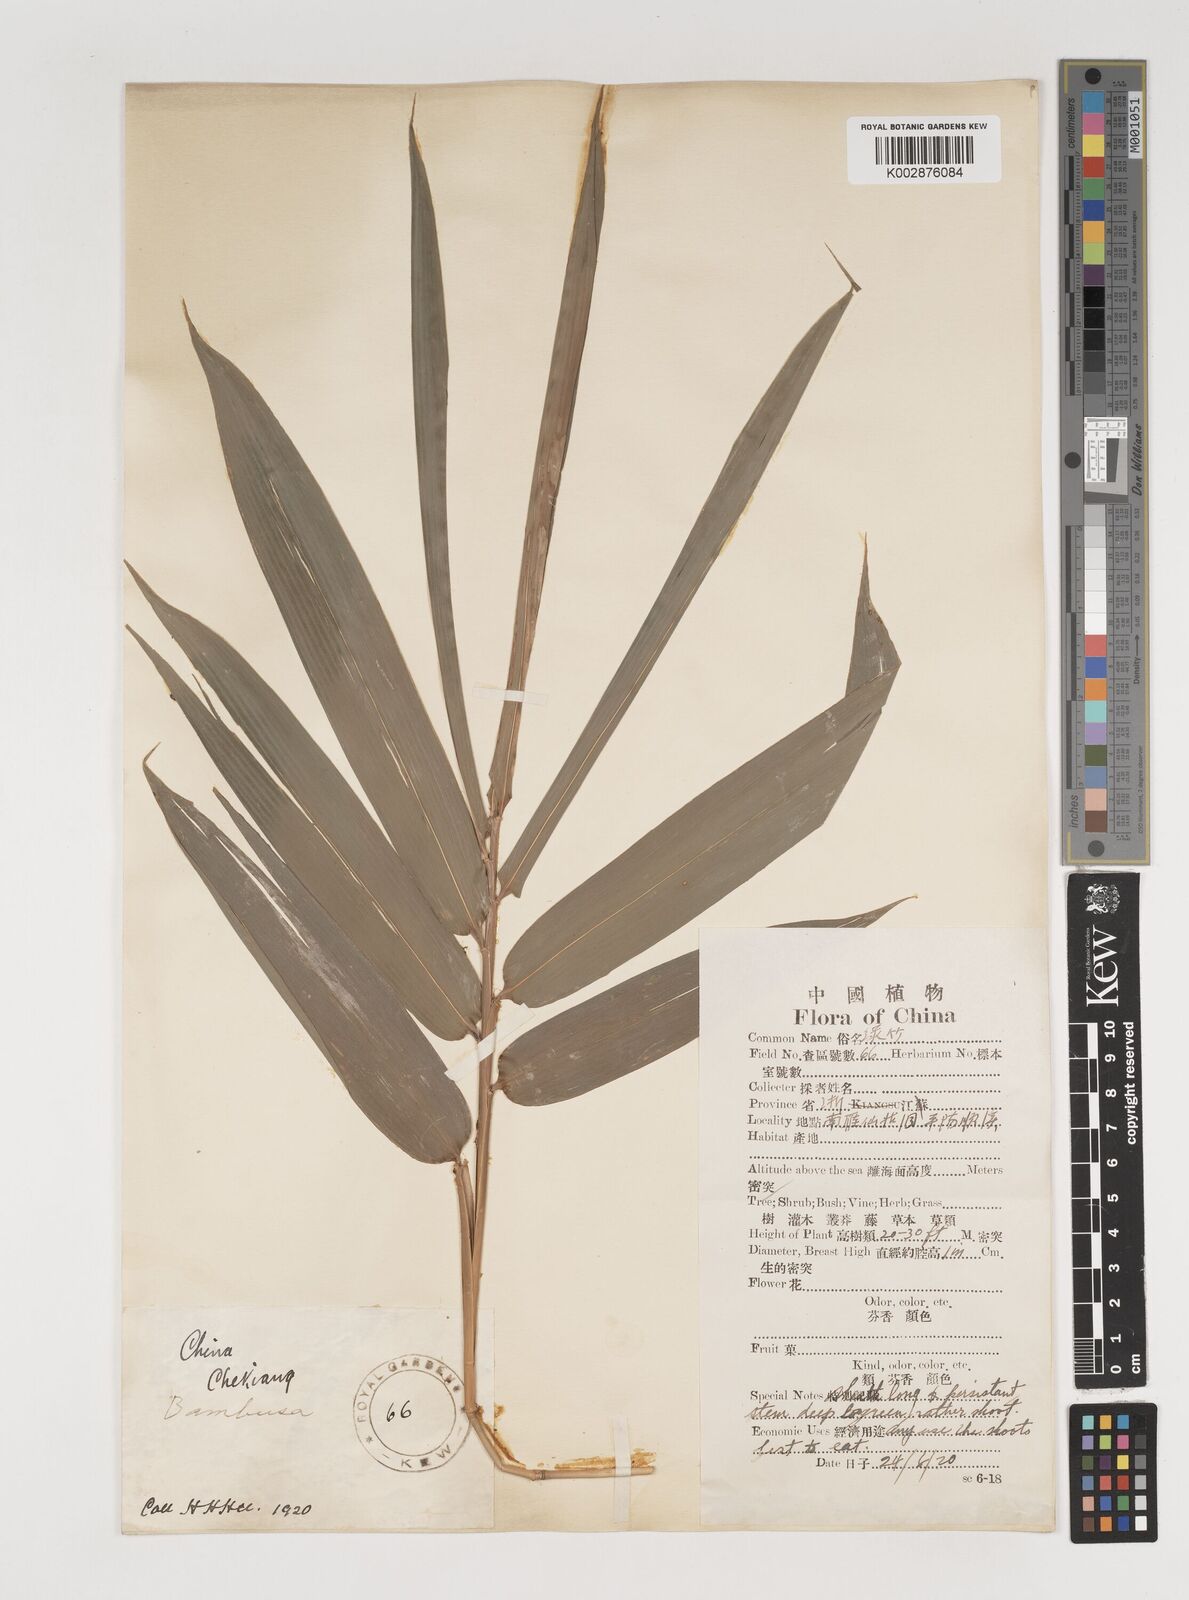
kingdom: Plantae
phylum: Tracheophyta
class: Liliopsida
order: Poales
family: Poaceae
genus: Bambusa
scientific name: Bambusa
